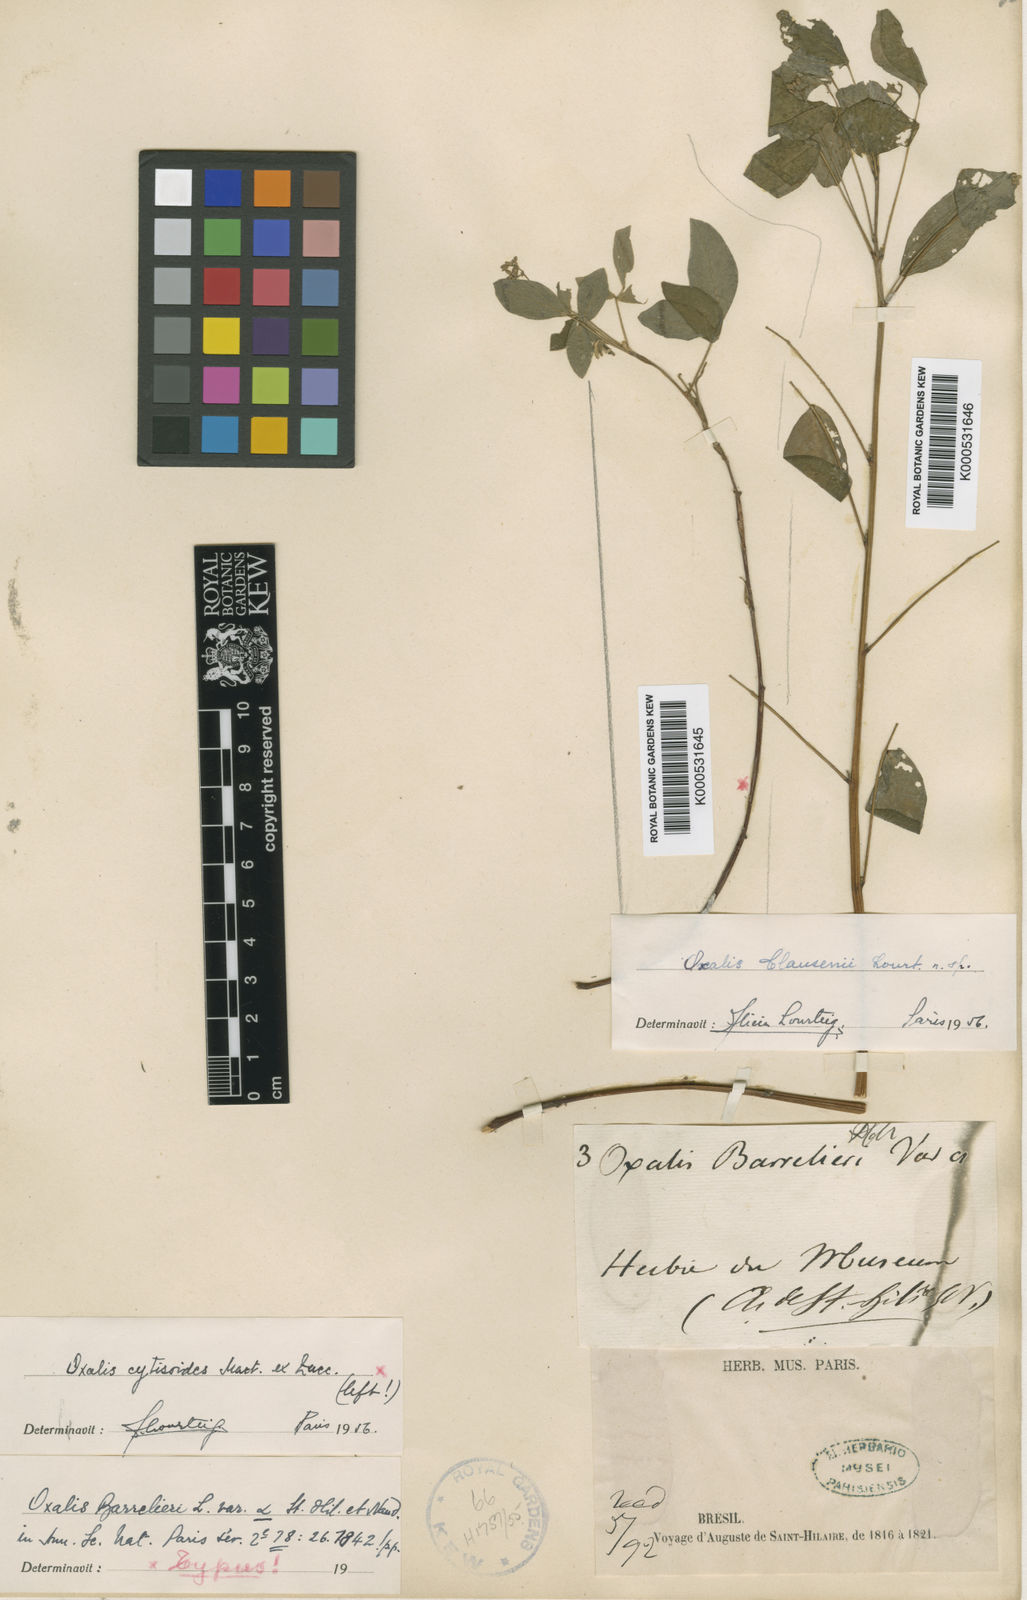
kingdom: Plantae
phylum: Tracheophyta
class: Magnoliopsida
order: Oxalidales
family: Oxalidaceae
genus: Oxalis
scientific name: Oxalis clausenii
